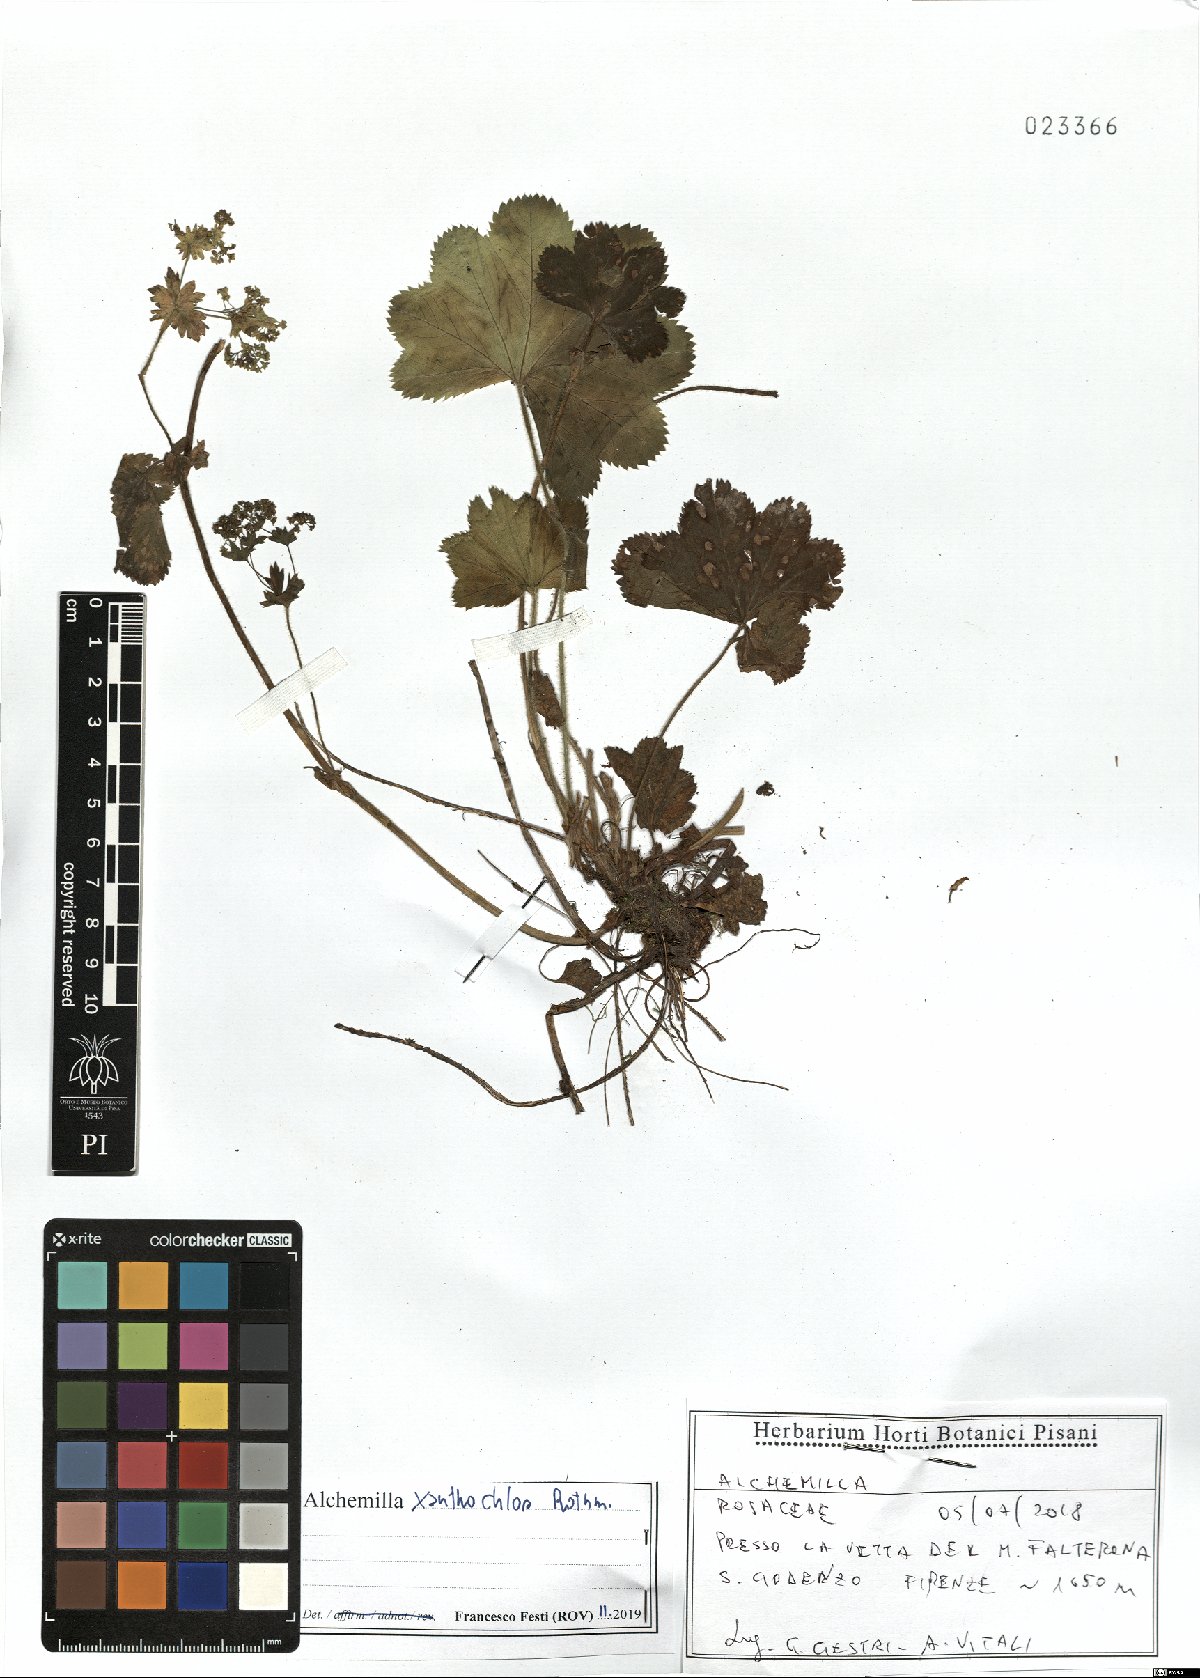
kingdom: Plantae
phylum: Tracheophyta
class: Magnoliopsida
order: Rosales
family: Rosaceae
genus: Alchemilla
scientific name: Alchemilla xanthochlora
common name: Intermediate lady's-mantle
